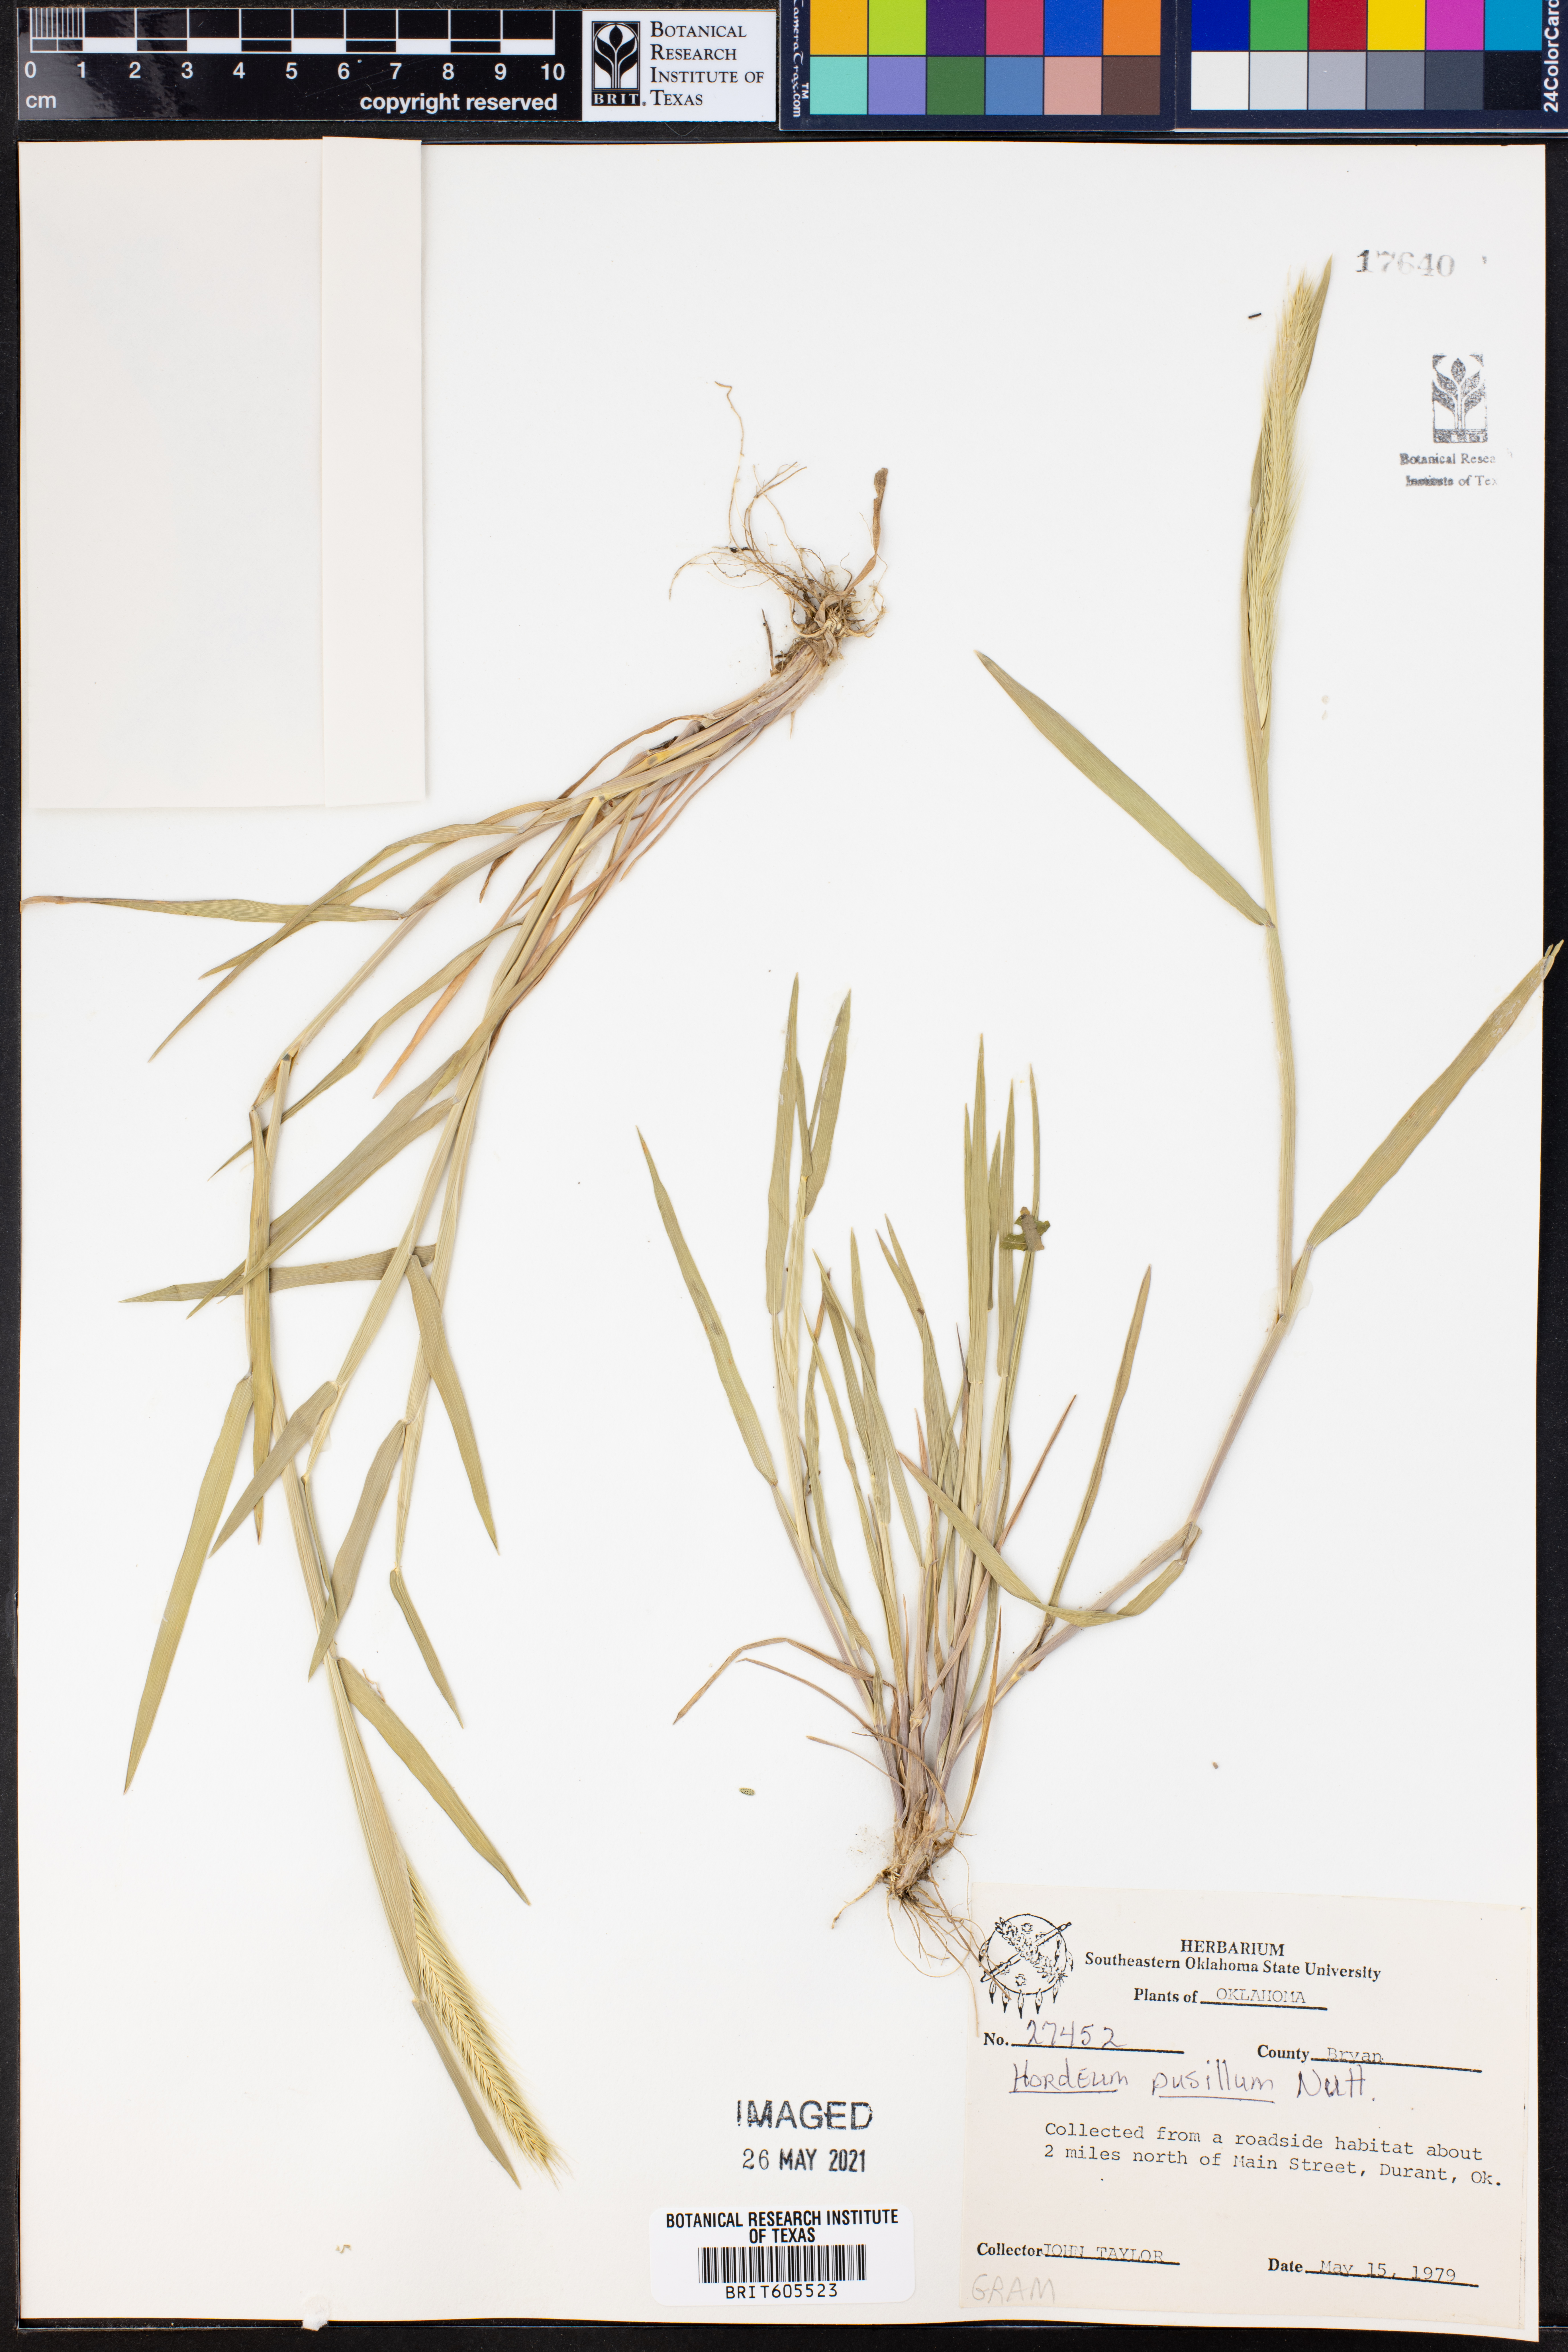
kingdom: Plantae
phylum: Tracheophyta
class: Liliopsida
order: Poales
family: Poaceae
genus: Hordeum
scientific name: Hordeum pusillum
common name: Little barley
